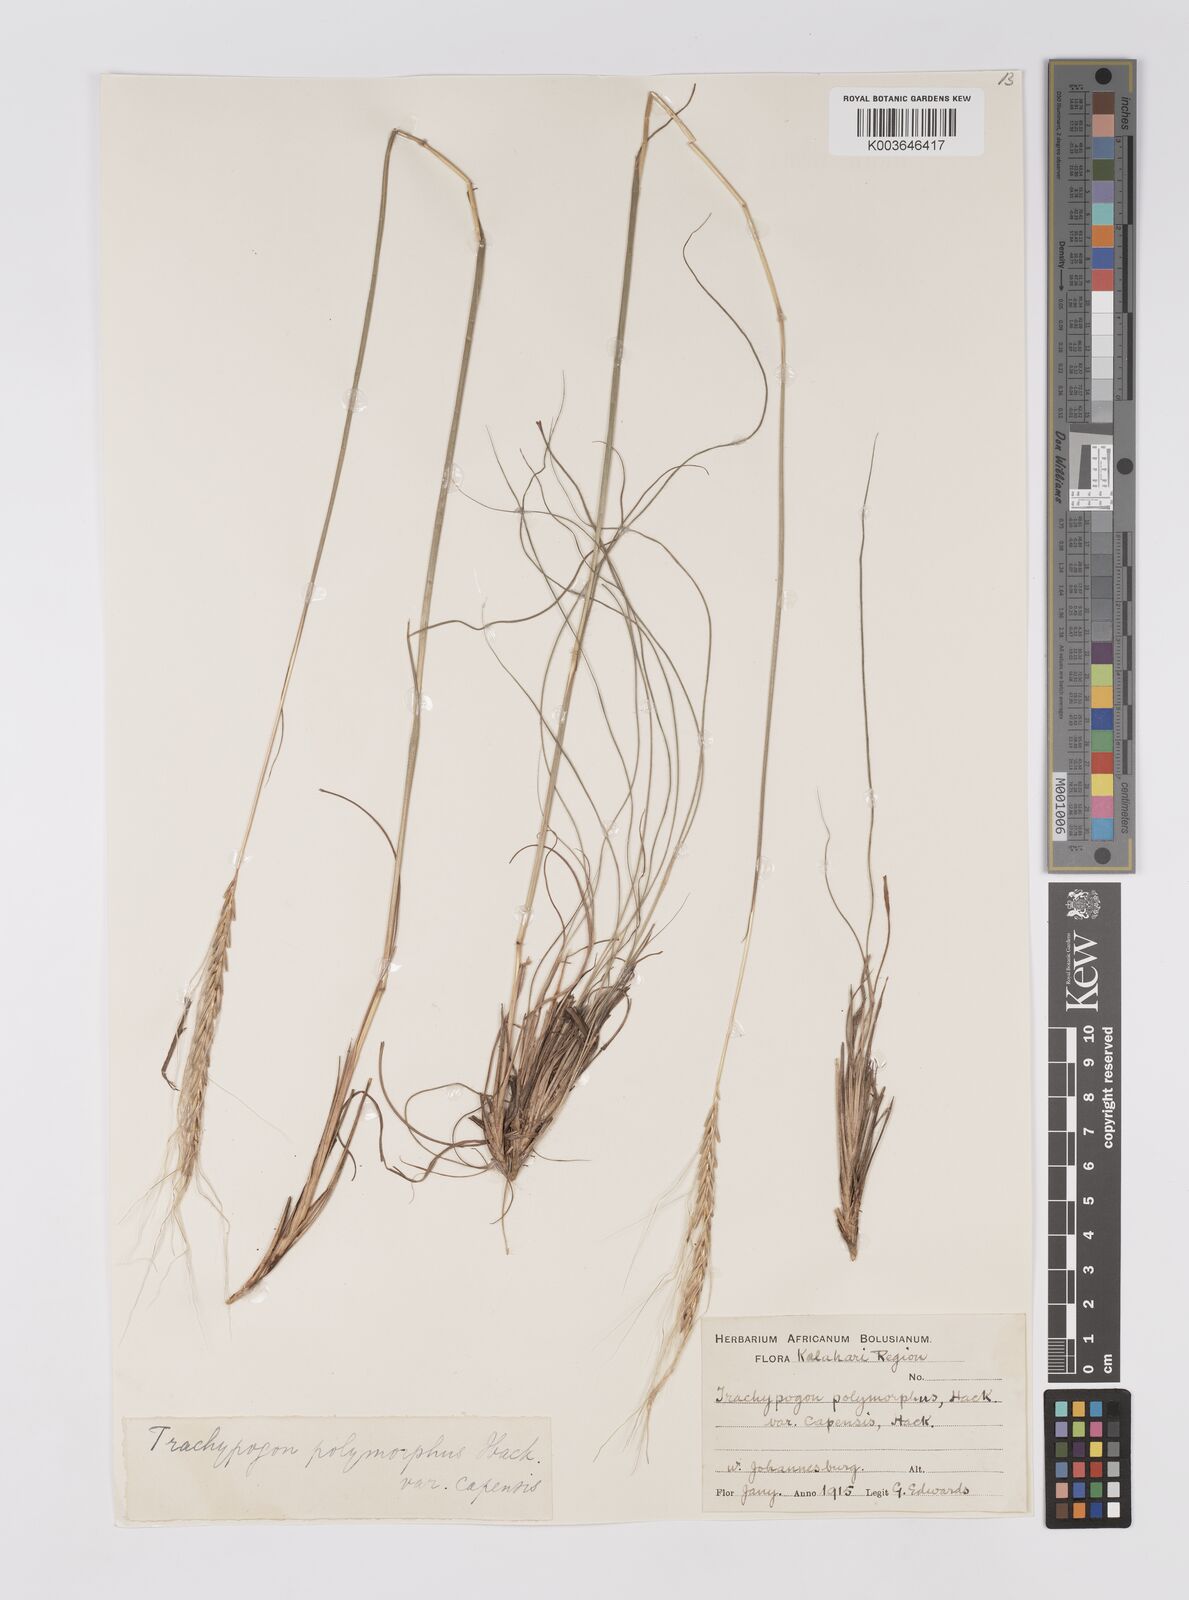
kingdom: Plantae
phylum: Tracheophyta
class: Liliopsida
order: Poales
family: Poaceae
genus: Trachypogon
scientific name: Trachypogon spicatus
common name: Crinkle-awn
